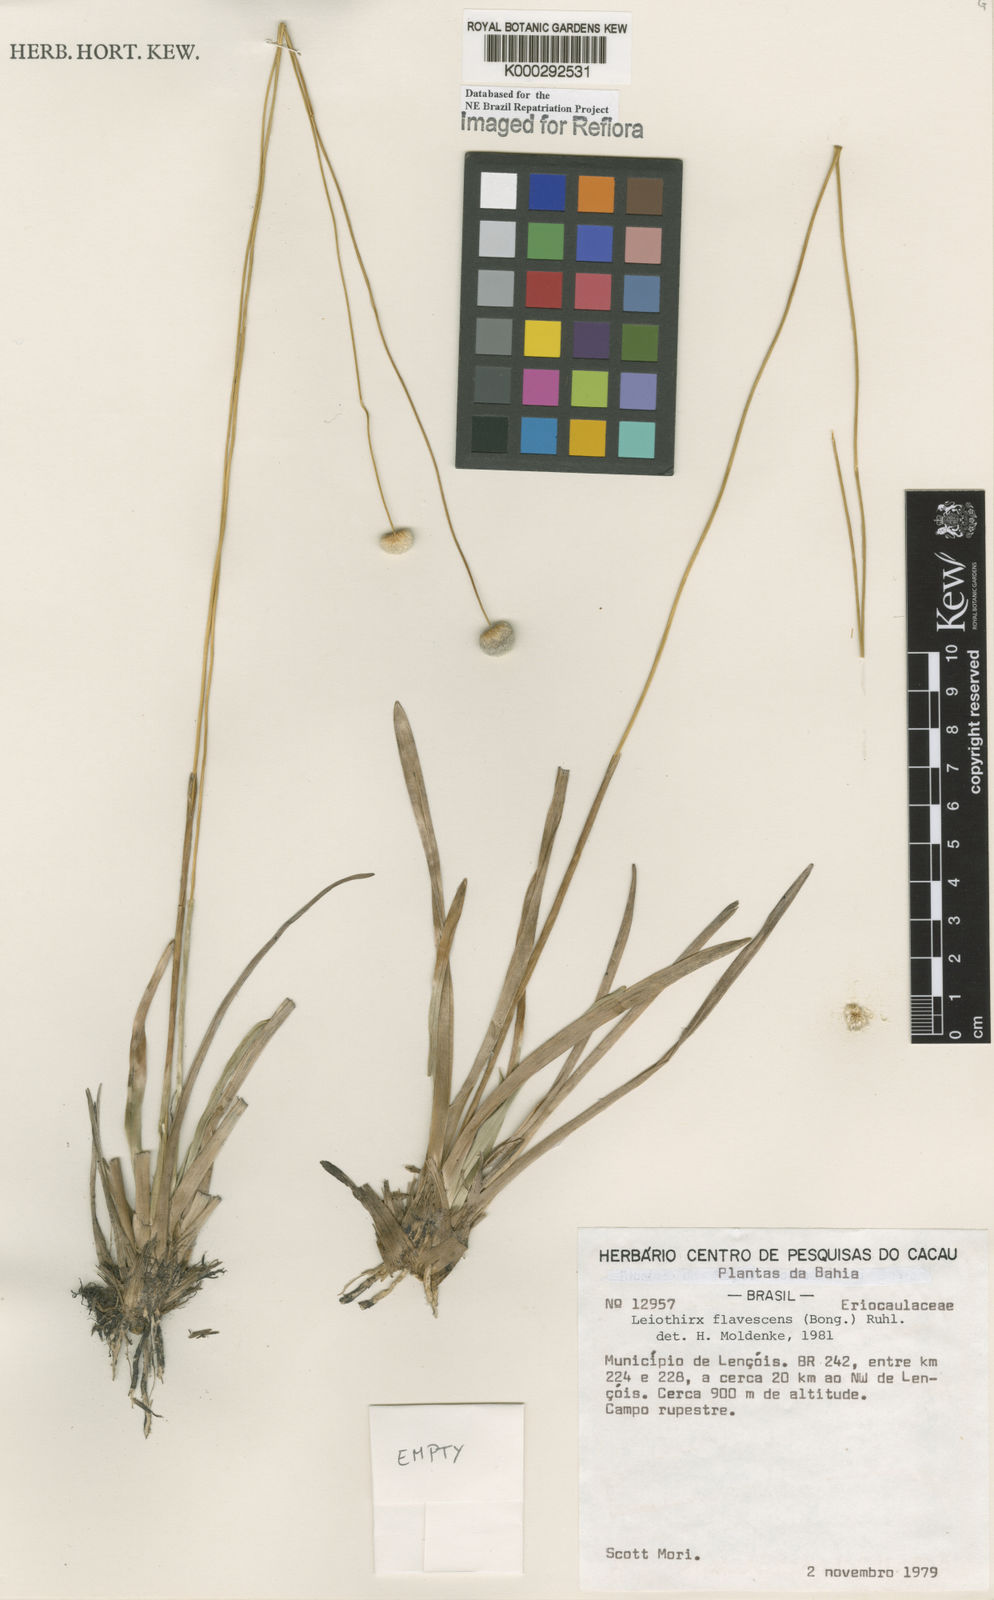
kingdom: Plantae
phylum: Tracheophyta
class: Liliopsida
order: Poales
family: Eriocaulaceae
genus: Leiothrix
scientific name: Leiothrix flavescens
